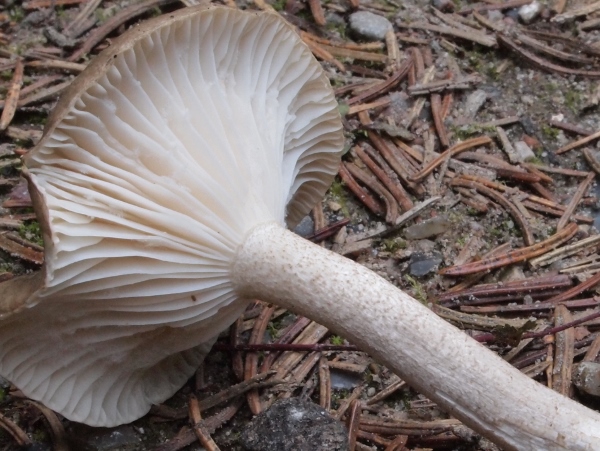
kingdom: Fungi
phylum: Basidiomycota
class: Agaricomycetes
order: Agaricales
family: Hygrophoraceae
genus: Hygrophorus
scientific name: Hygrophorus pustulatus
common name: mørkprikket sneglehat
